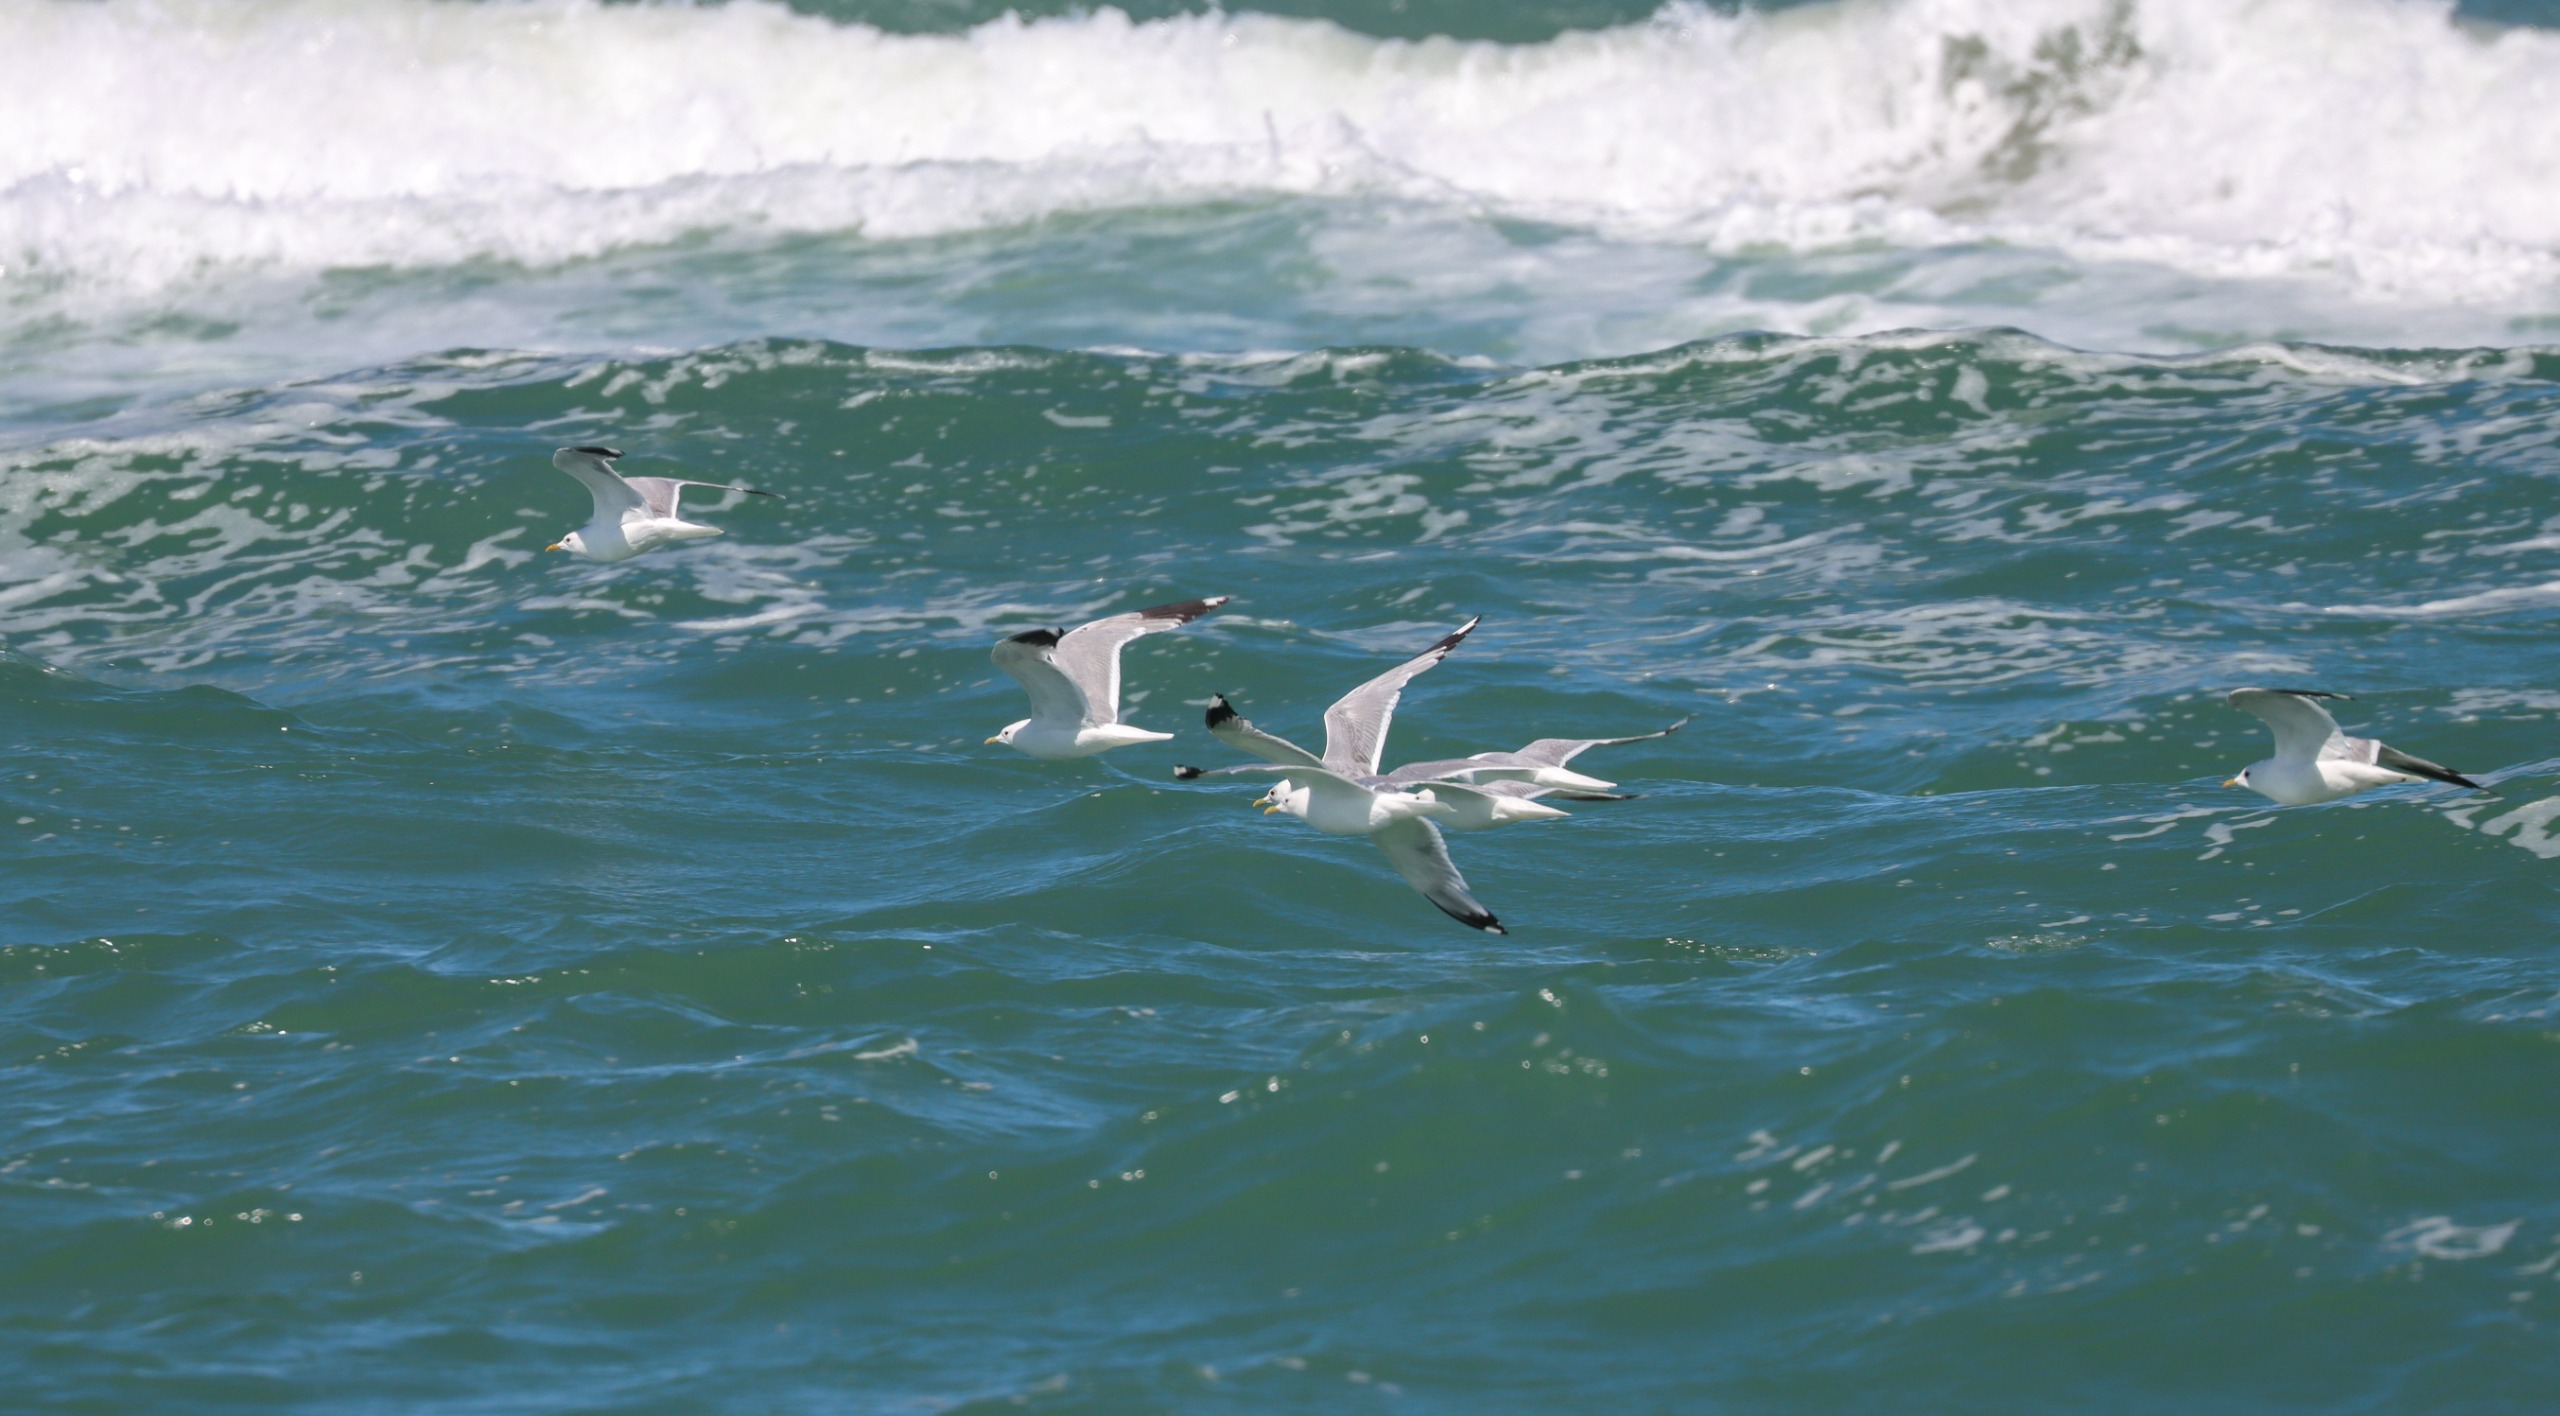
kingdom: Animalia
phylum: Chordata
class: Aves
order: Charadriiformes
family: Laridae
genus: Larus
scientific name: Larus canus
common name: Stormmåge
